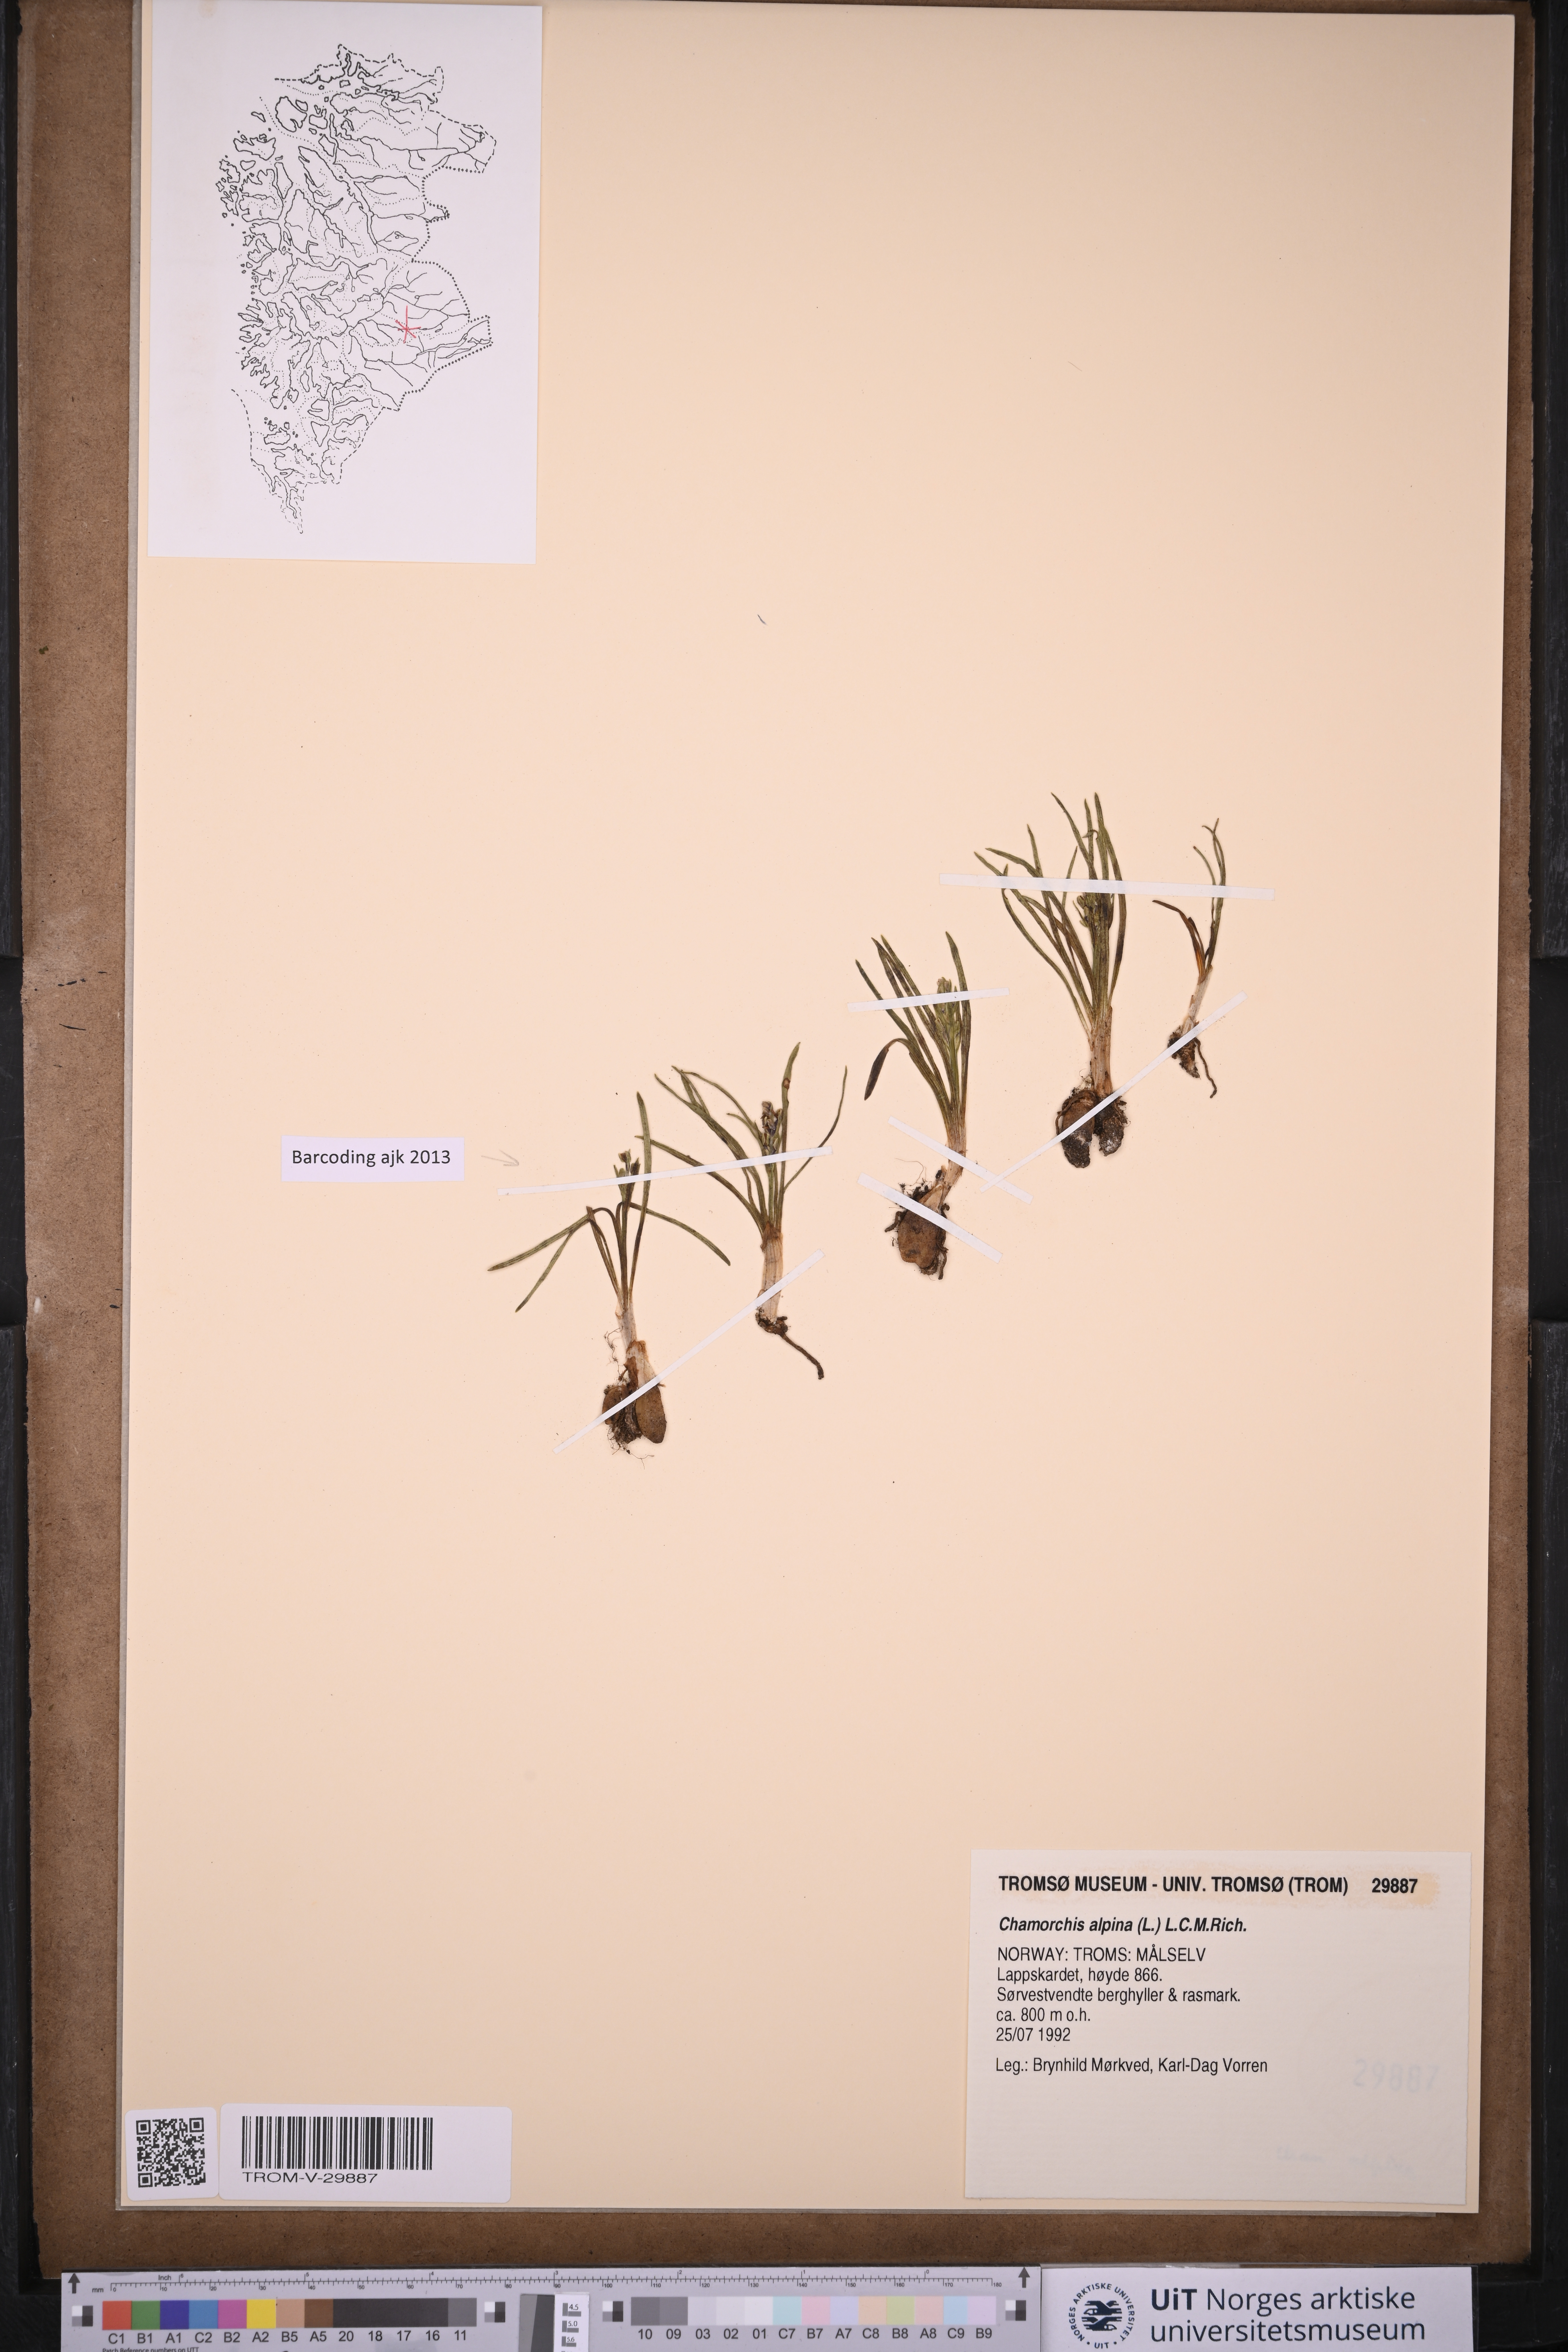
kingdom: Plantae
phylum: Tracheophyta
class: Liliopsida
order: Asparagales
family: Orchidaceae
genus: Chamorchis
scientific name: Chamorchis alpina
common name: Alpine chamorchis
